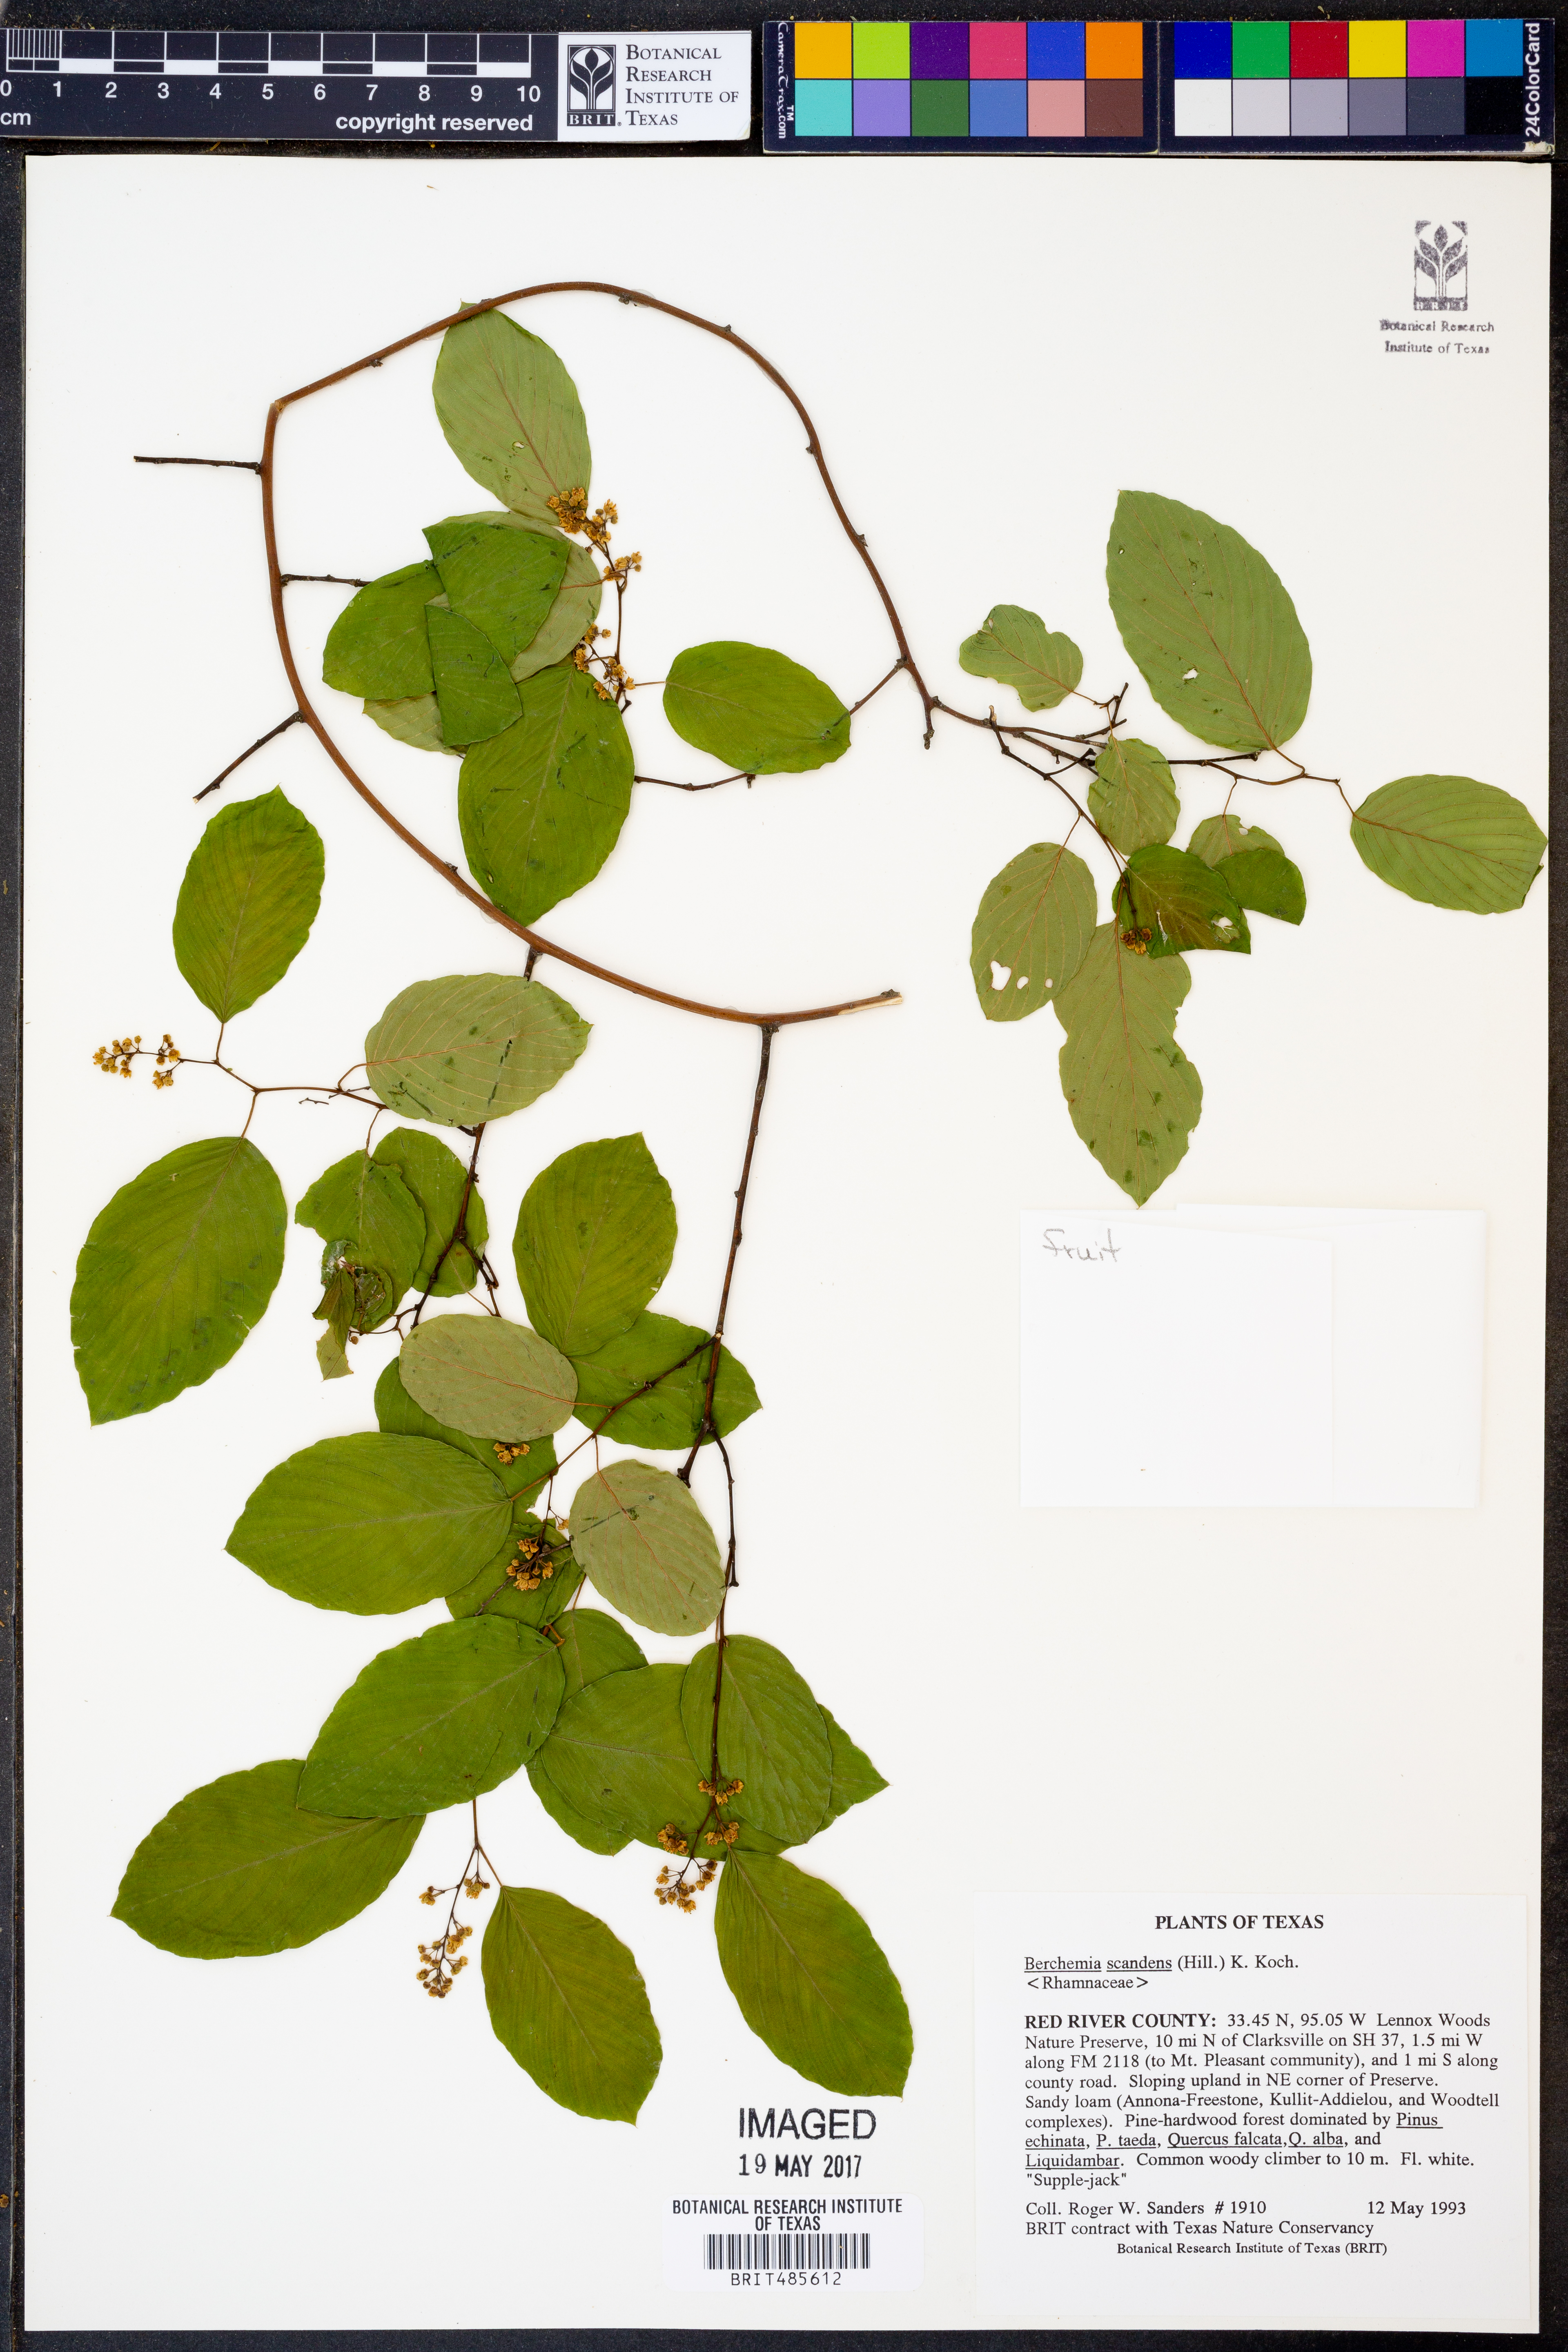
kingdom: Plantae
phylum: Tracheophyta
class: Magnoliopsida
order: Rosales
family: Rhamnaceae
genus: Berchemia
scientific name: Berchemia scandens
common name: Supplejack
